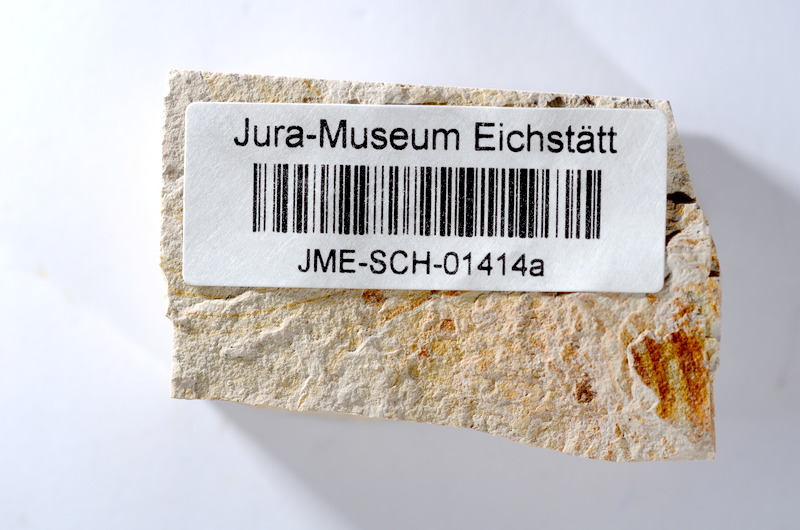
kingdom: Animalia
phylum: Chordata
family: Ascalaboidae
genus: Tharsis
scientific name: Tharsis dubius
